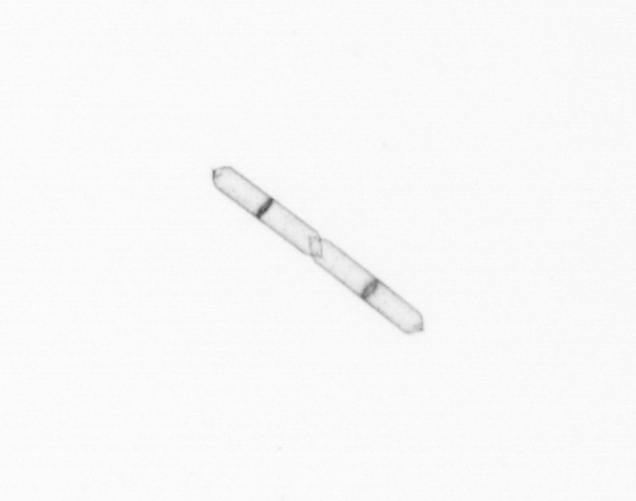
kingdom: Chromista
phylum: Ochrophyta
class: Bacillariophyceae
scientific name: Bacillariophyceae
